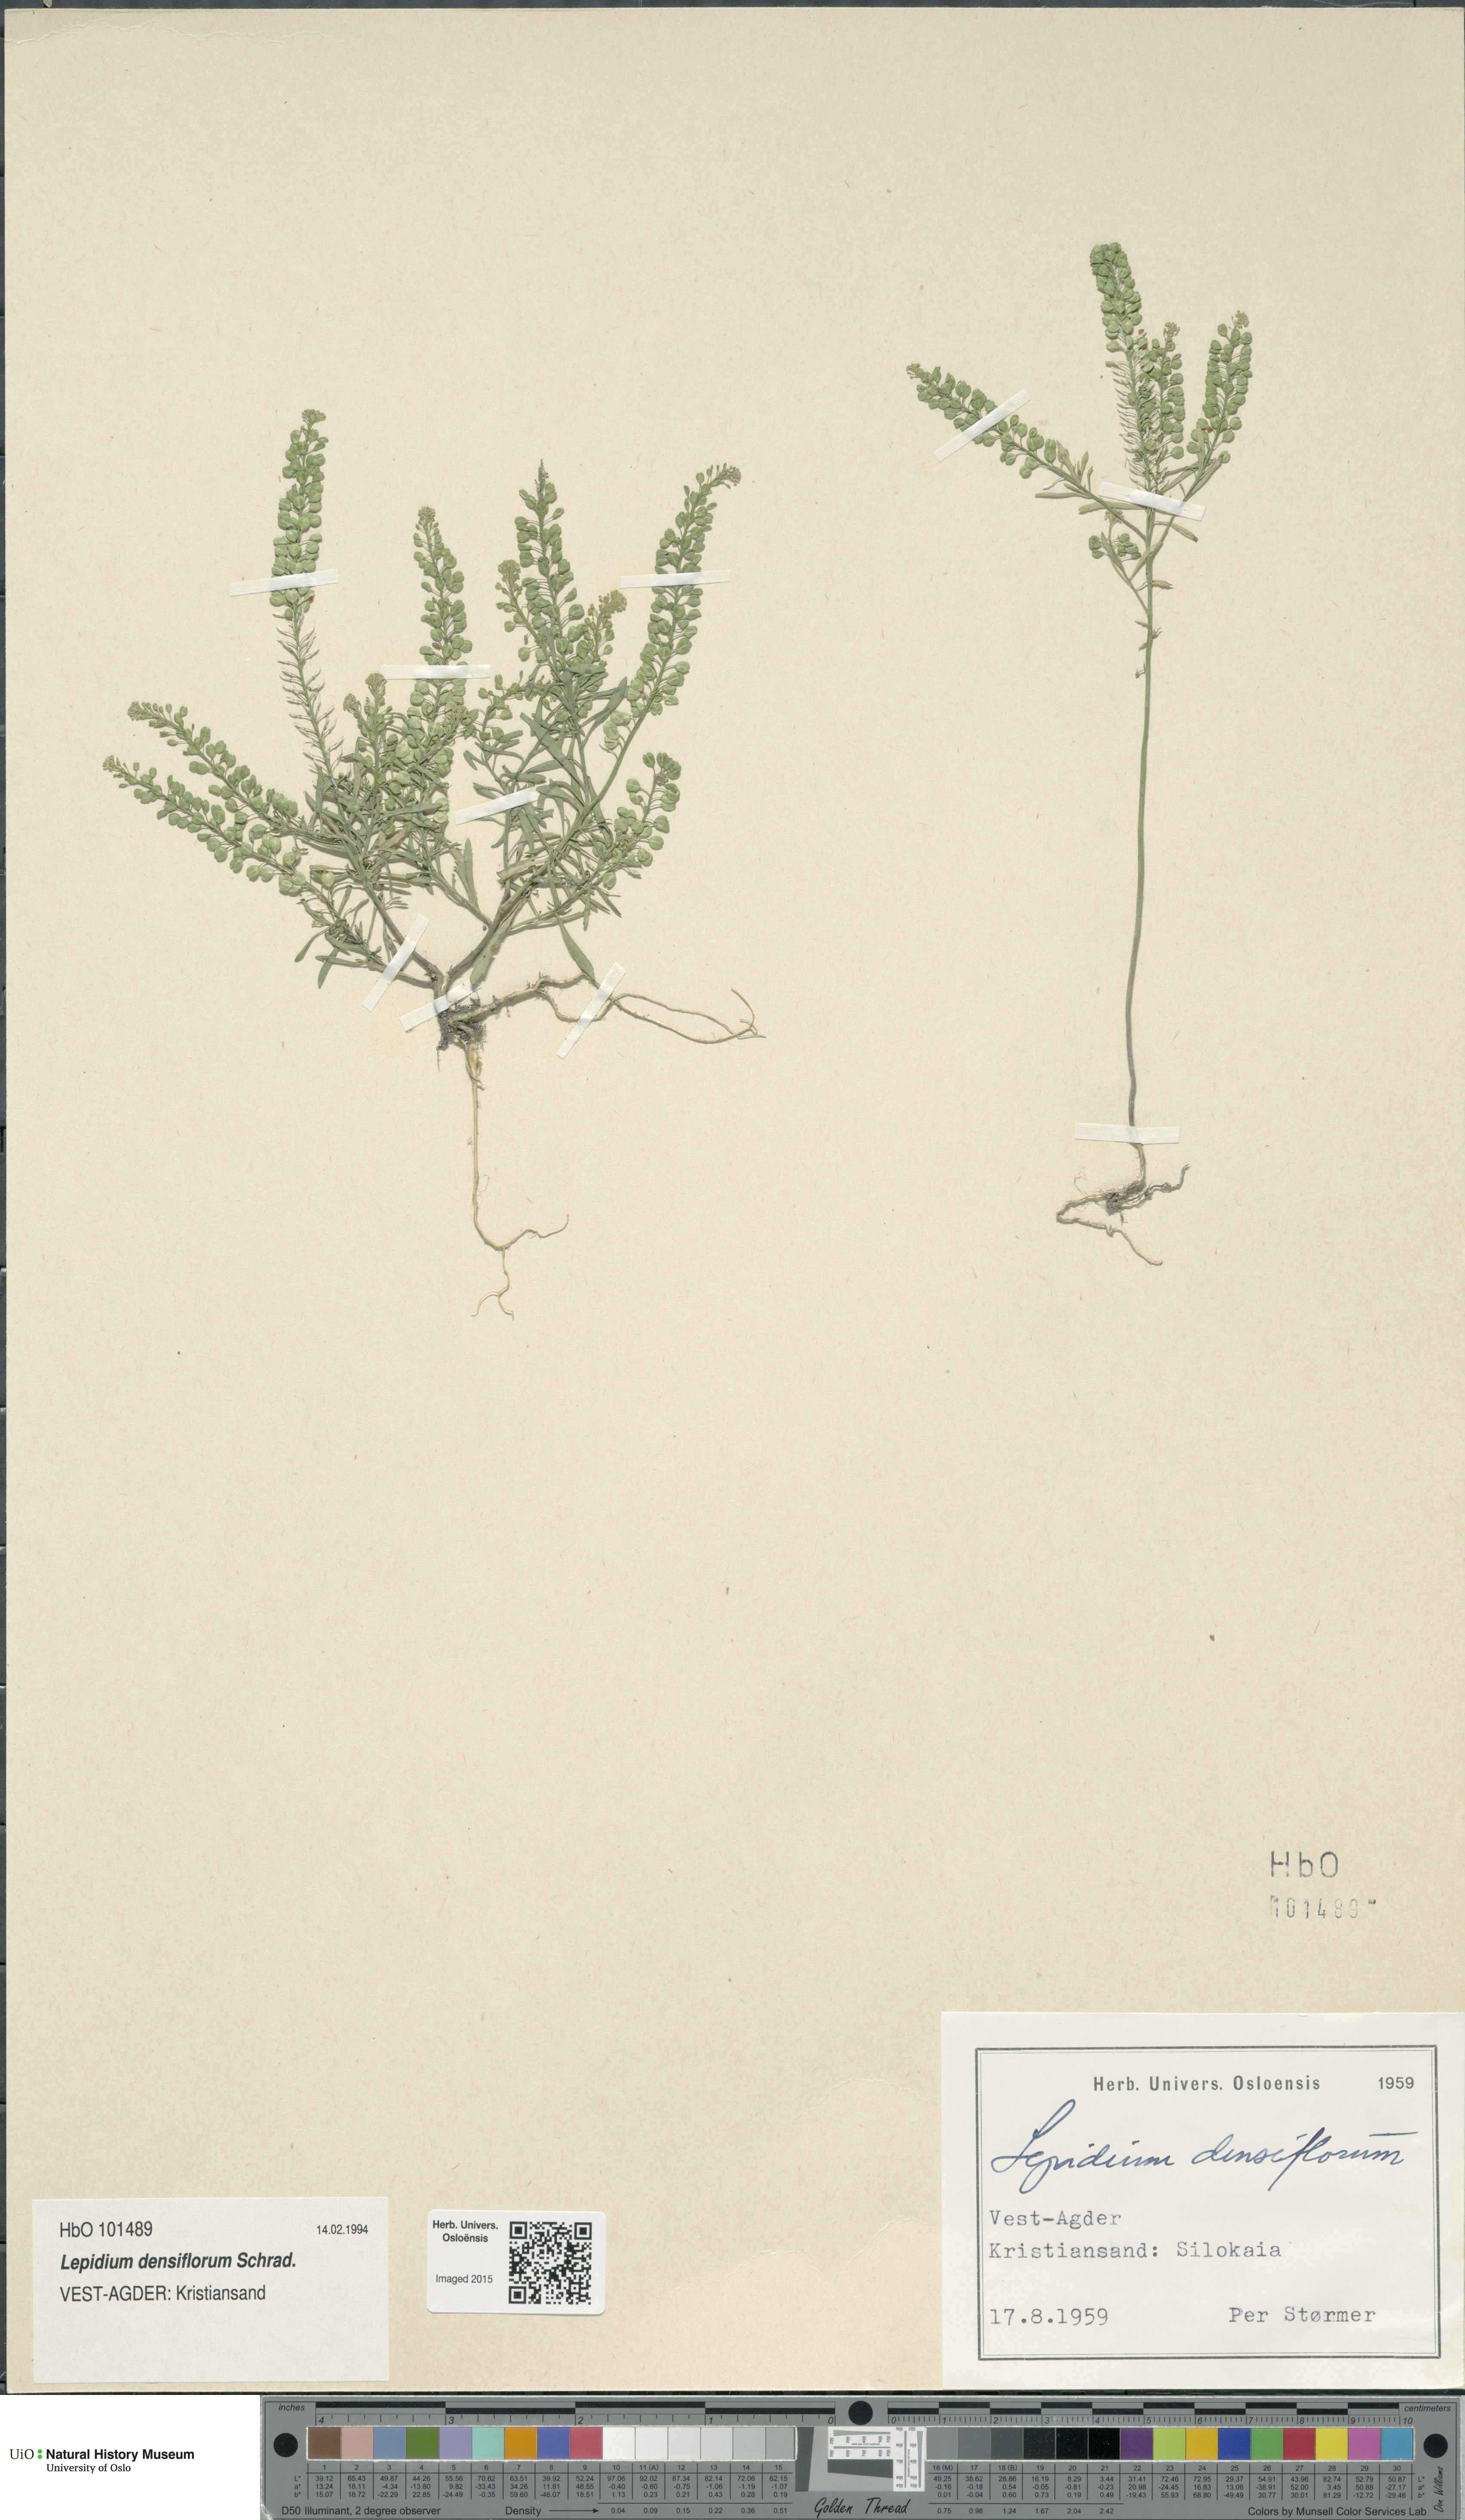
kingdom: Plantae
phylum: Tracheophyta
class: Magnoliopsida
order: Brassicales
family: Brassicaceae
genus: Lepidium
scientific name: Lepidium densiflorum
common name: Miner's pepperwort
